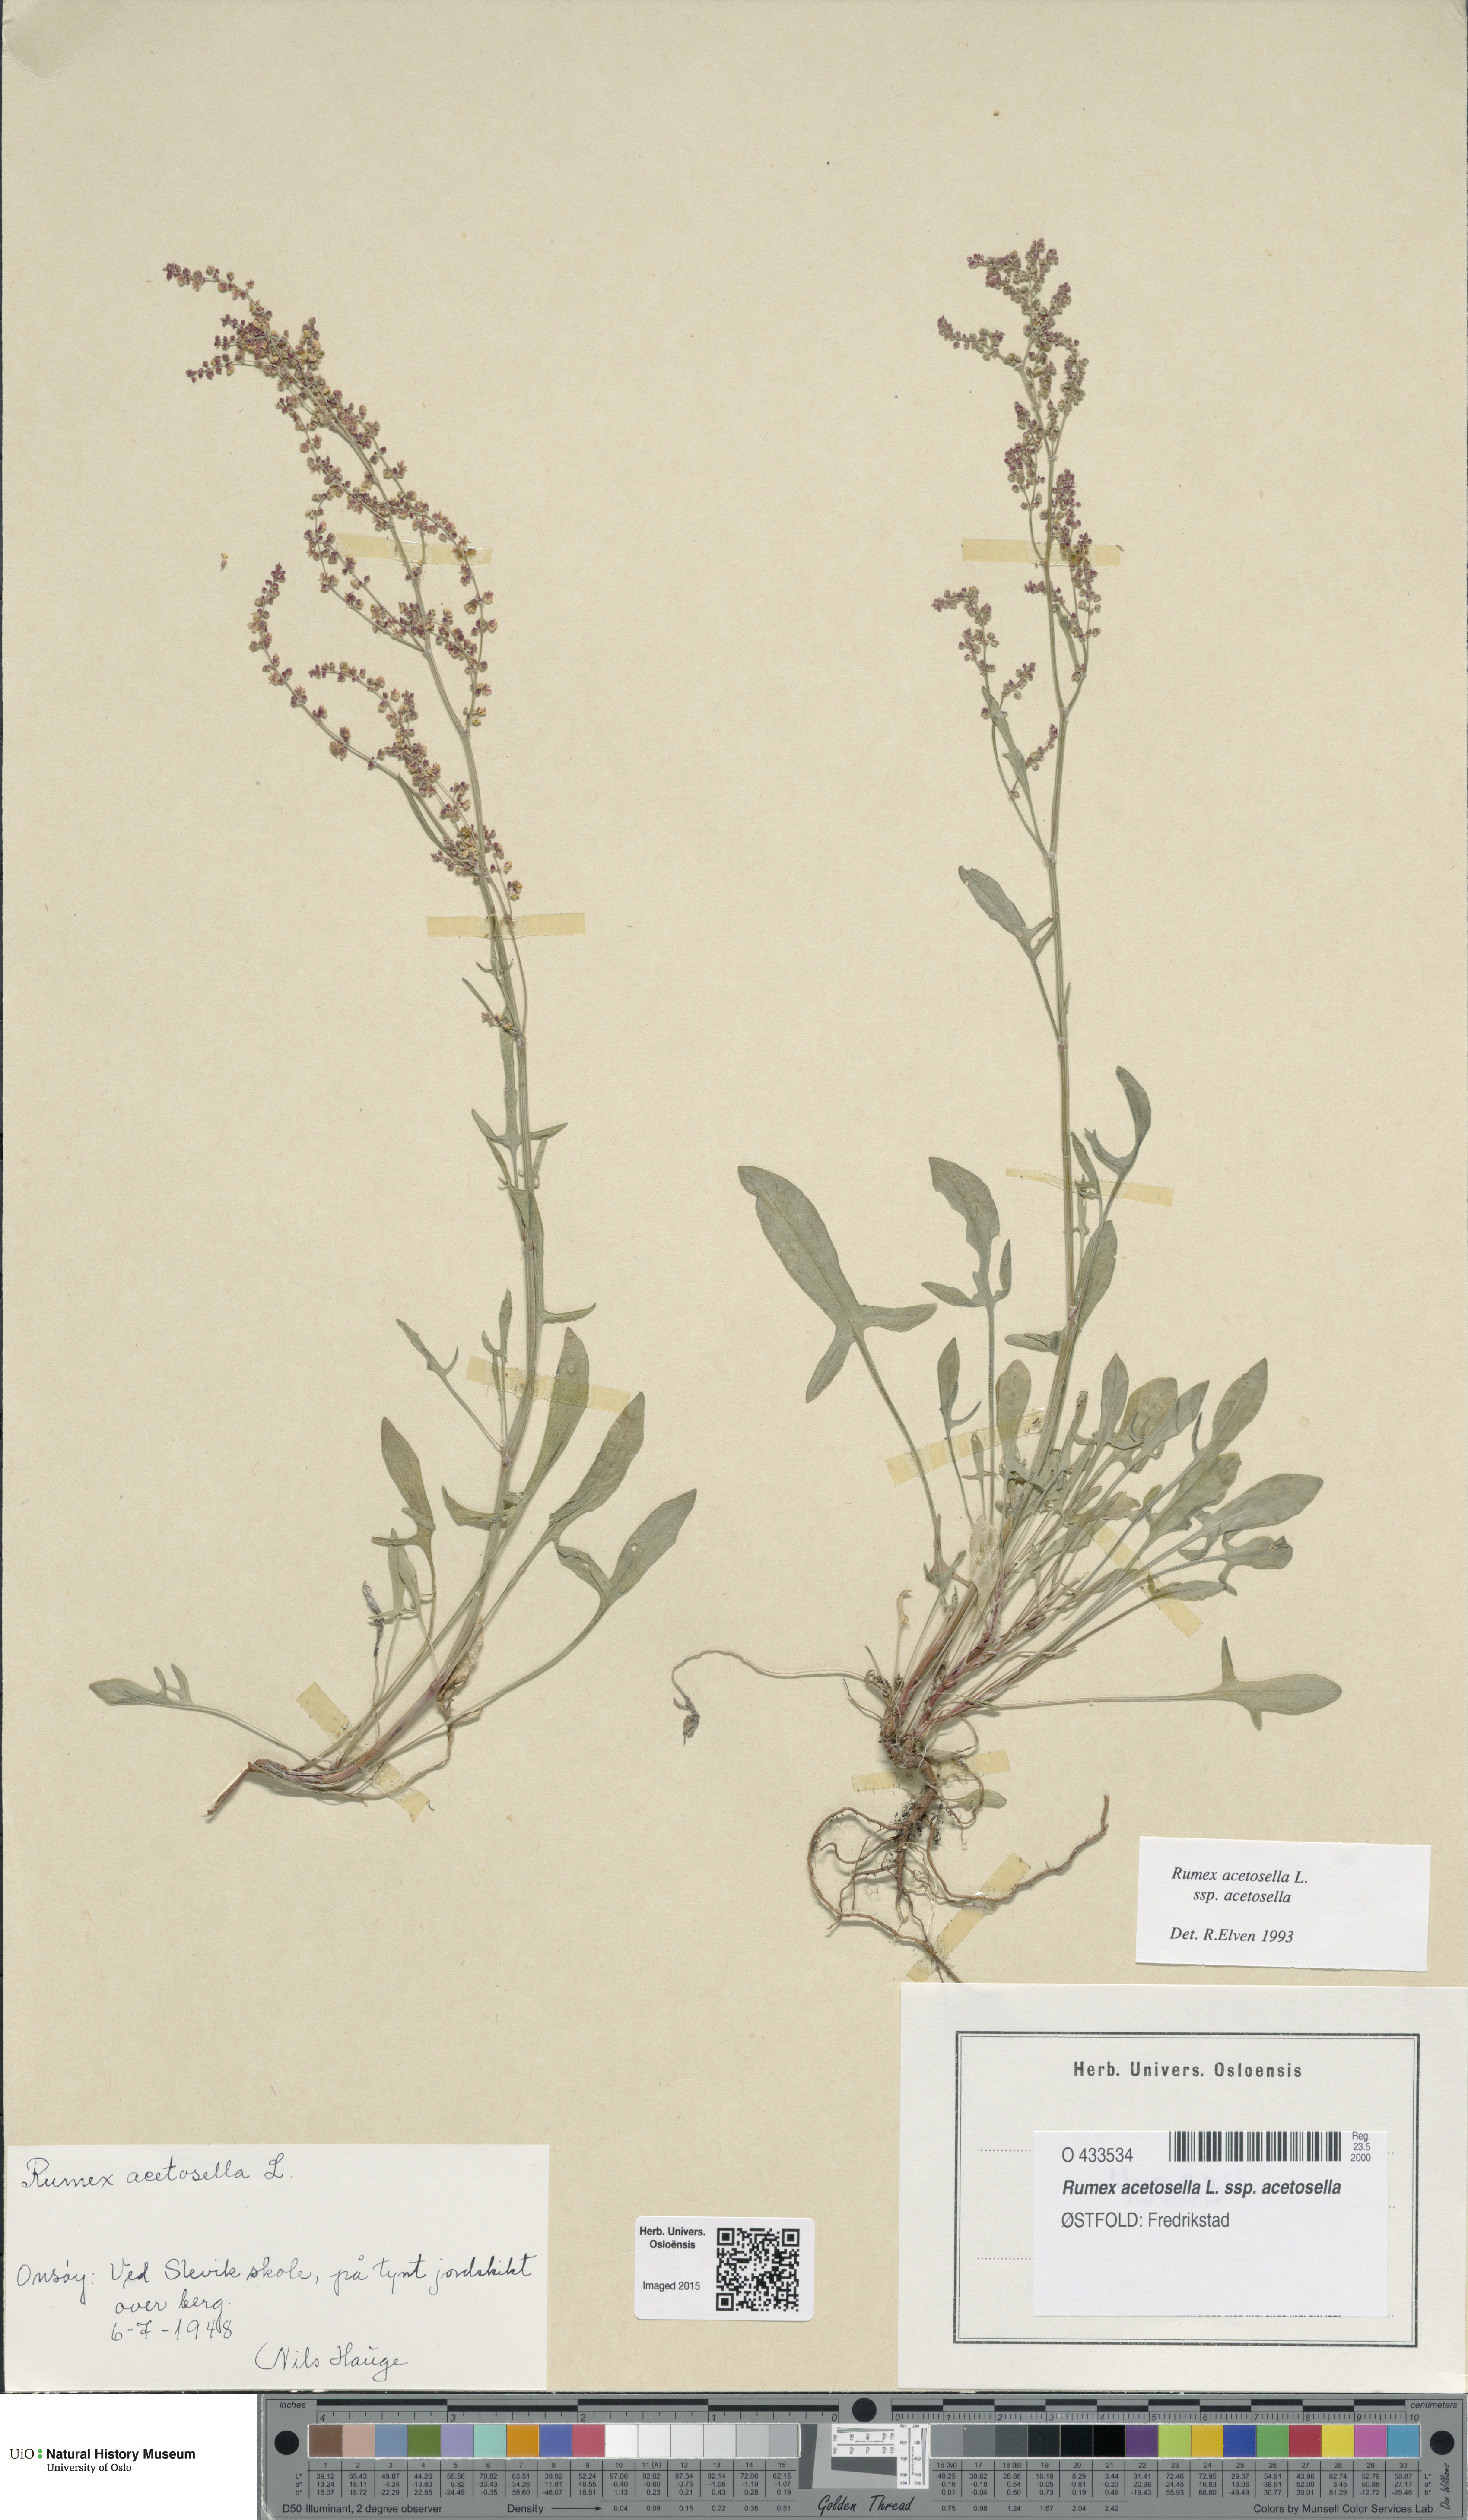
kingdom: Plantae
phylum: Tracheophyta
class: Magnoliopsida
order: Caryophyllales
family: Polygonaceae
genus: Rumex
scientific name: Rumex acetosella
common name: Common sheep sorrel
